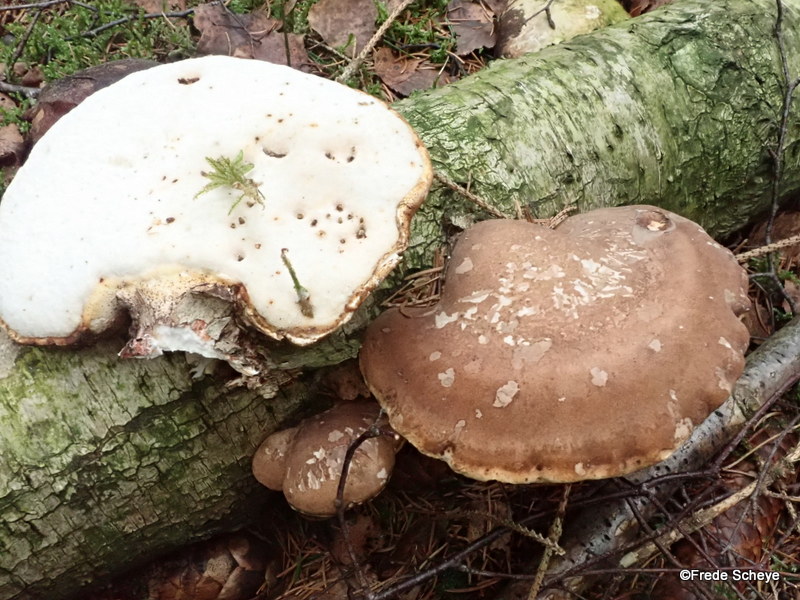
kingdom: Fungi
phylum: Basidiomycota
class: Agaricomycetes
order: Polyporales
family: Fomitopsidaceae
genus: Fomitopsis
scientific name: Fomitopsis betulina
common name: birkeporesvamp
